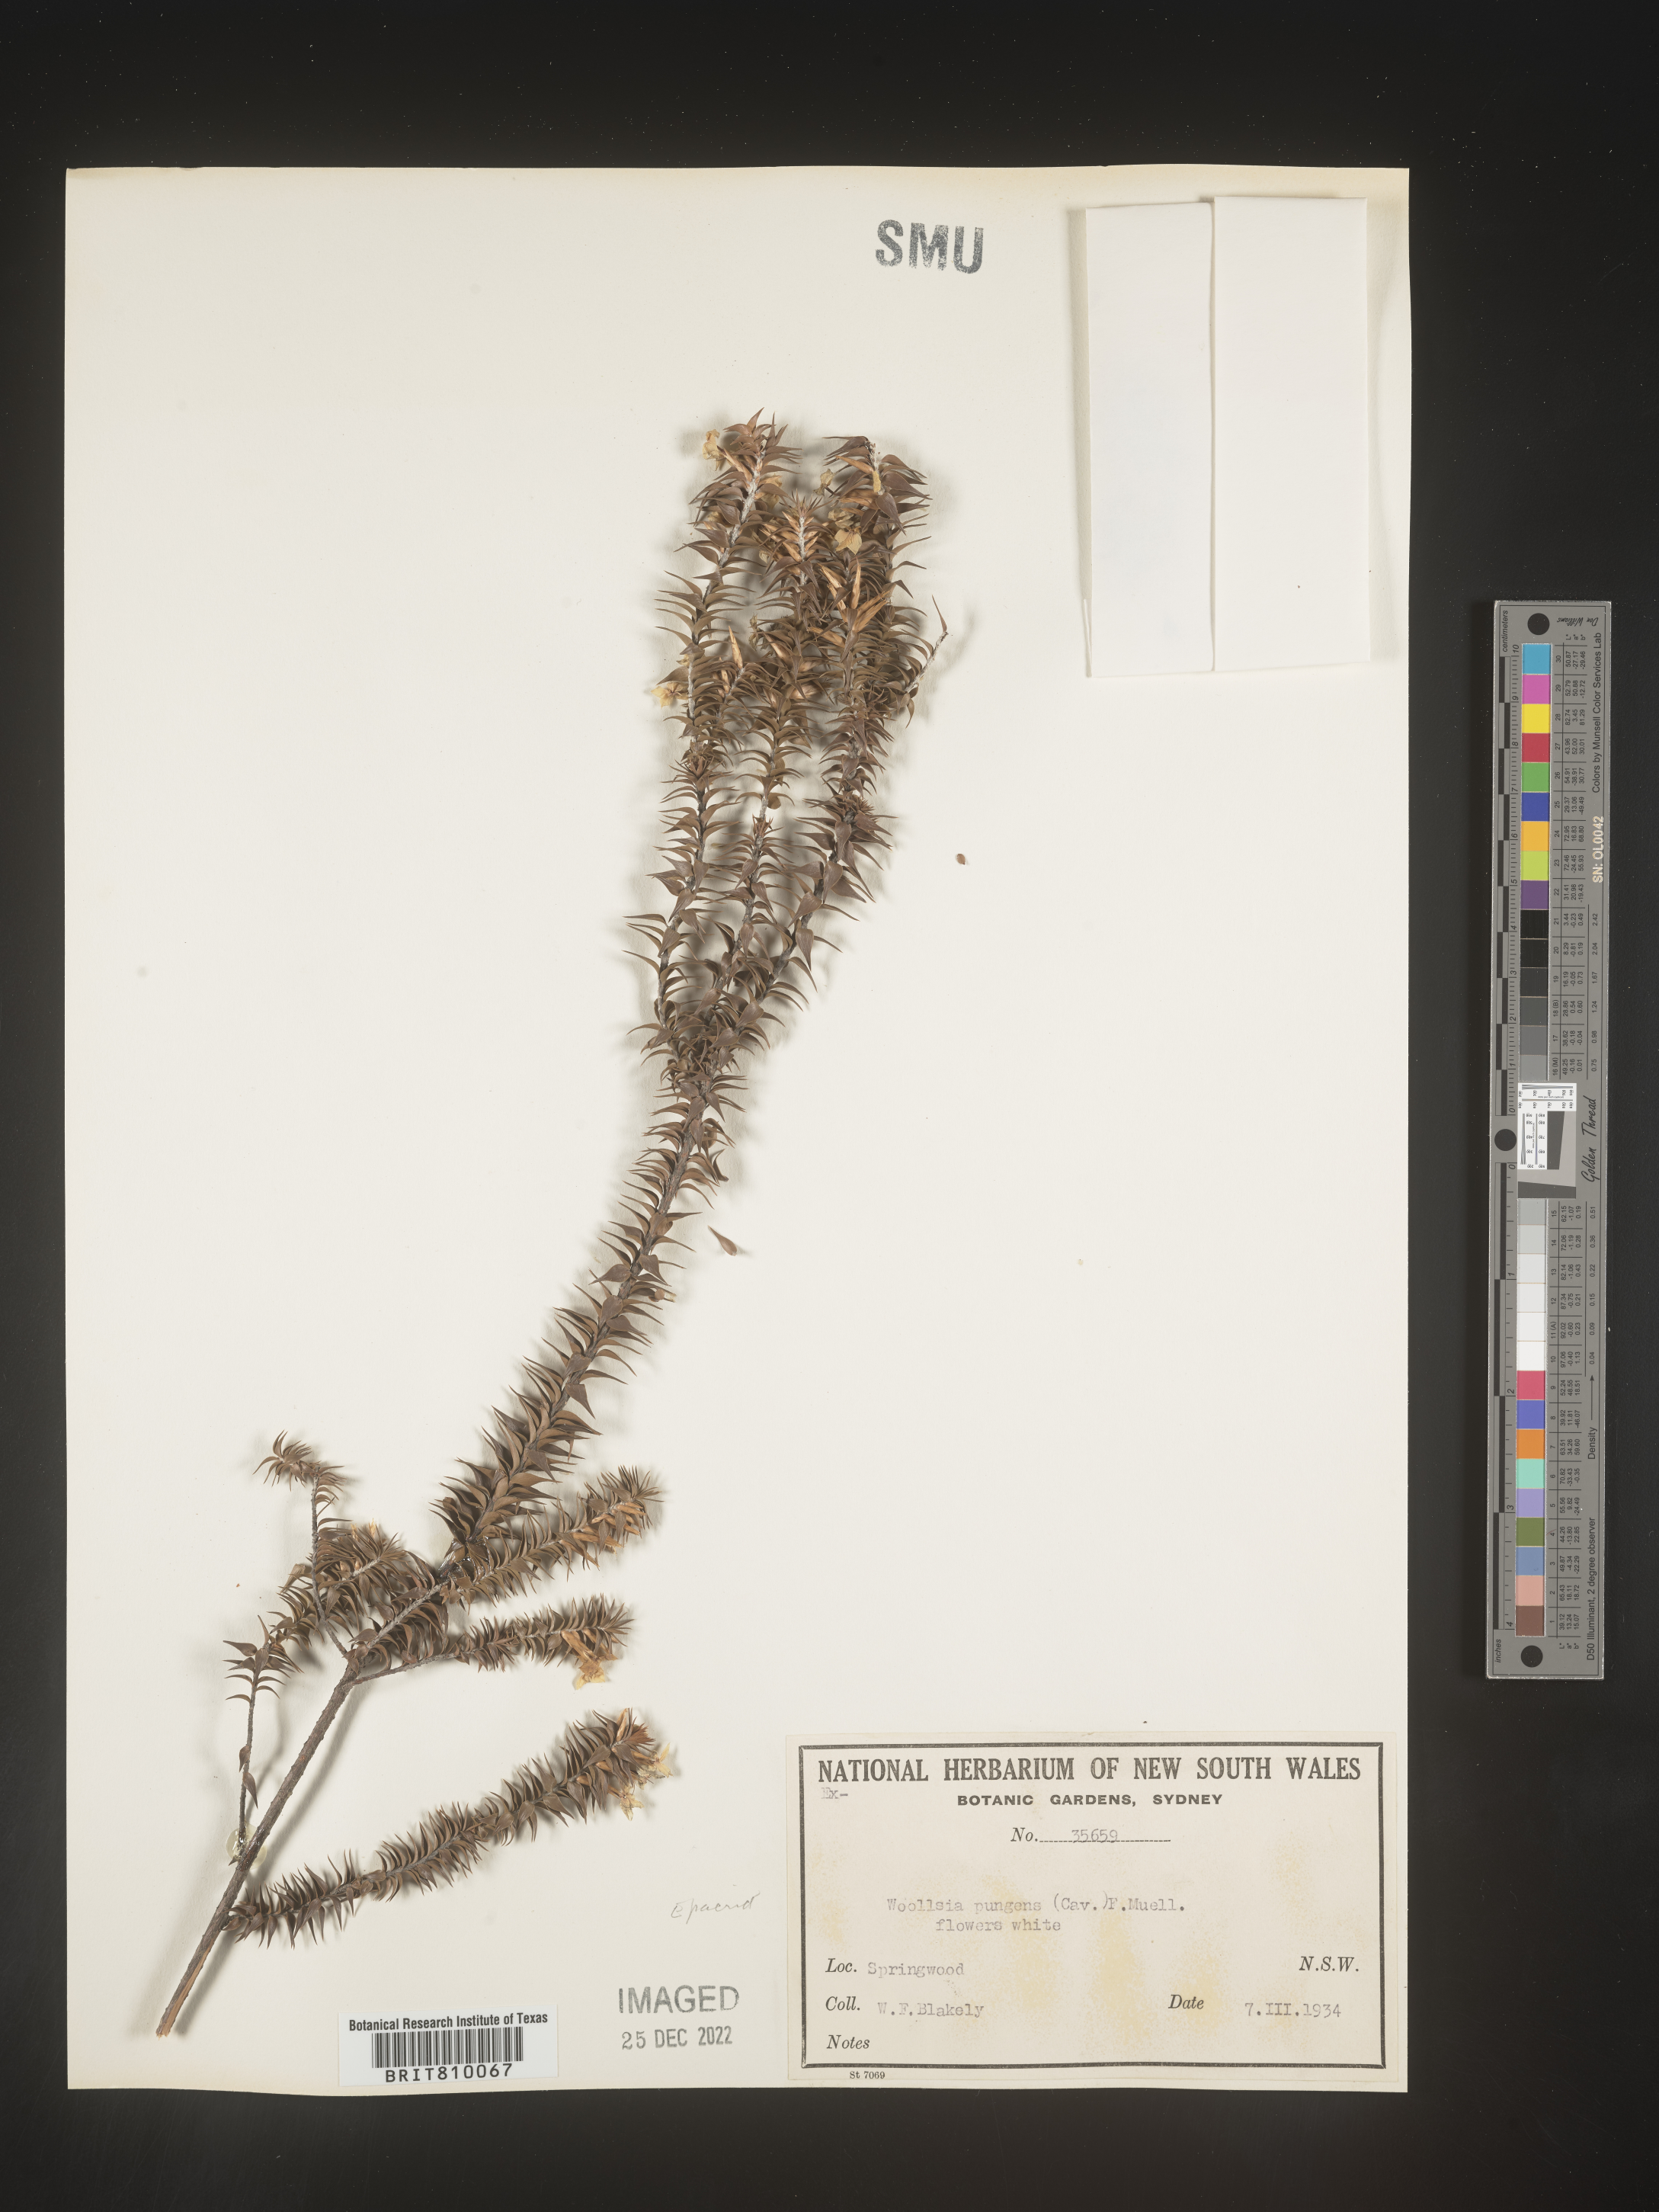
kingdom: Plantae
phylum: Tracheophyta
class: Magnoliopsida
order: Ericales
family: Ericaceae
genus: Woollsia
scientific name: Woollsia
